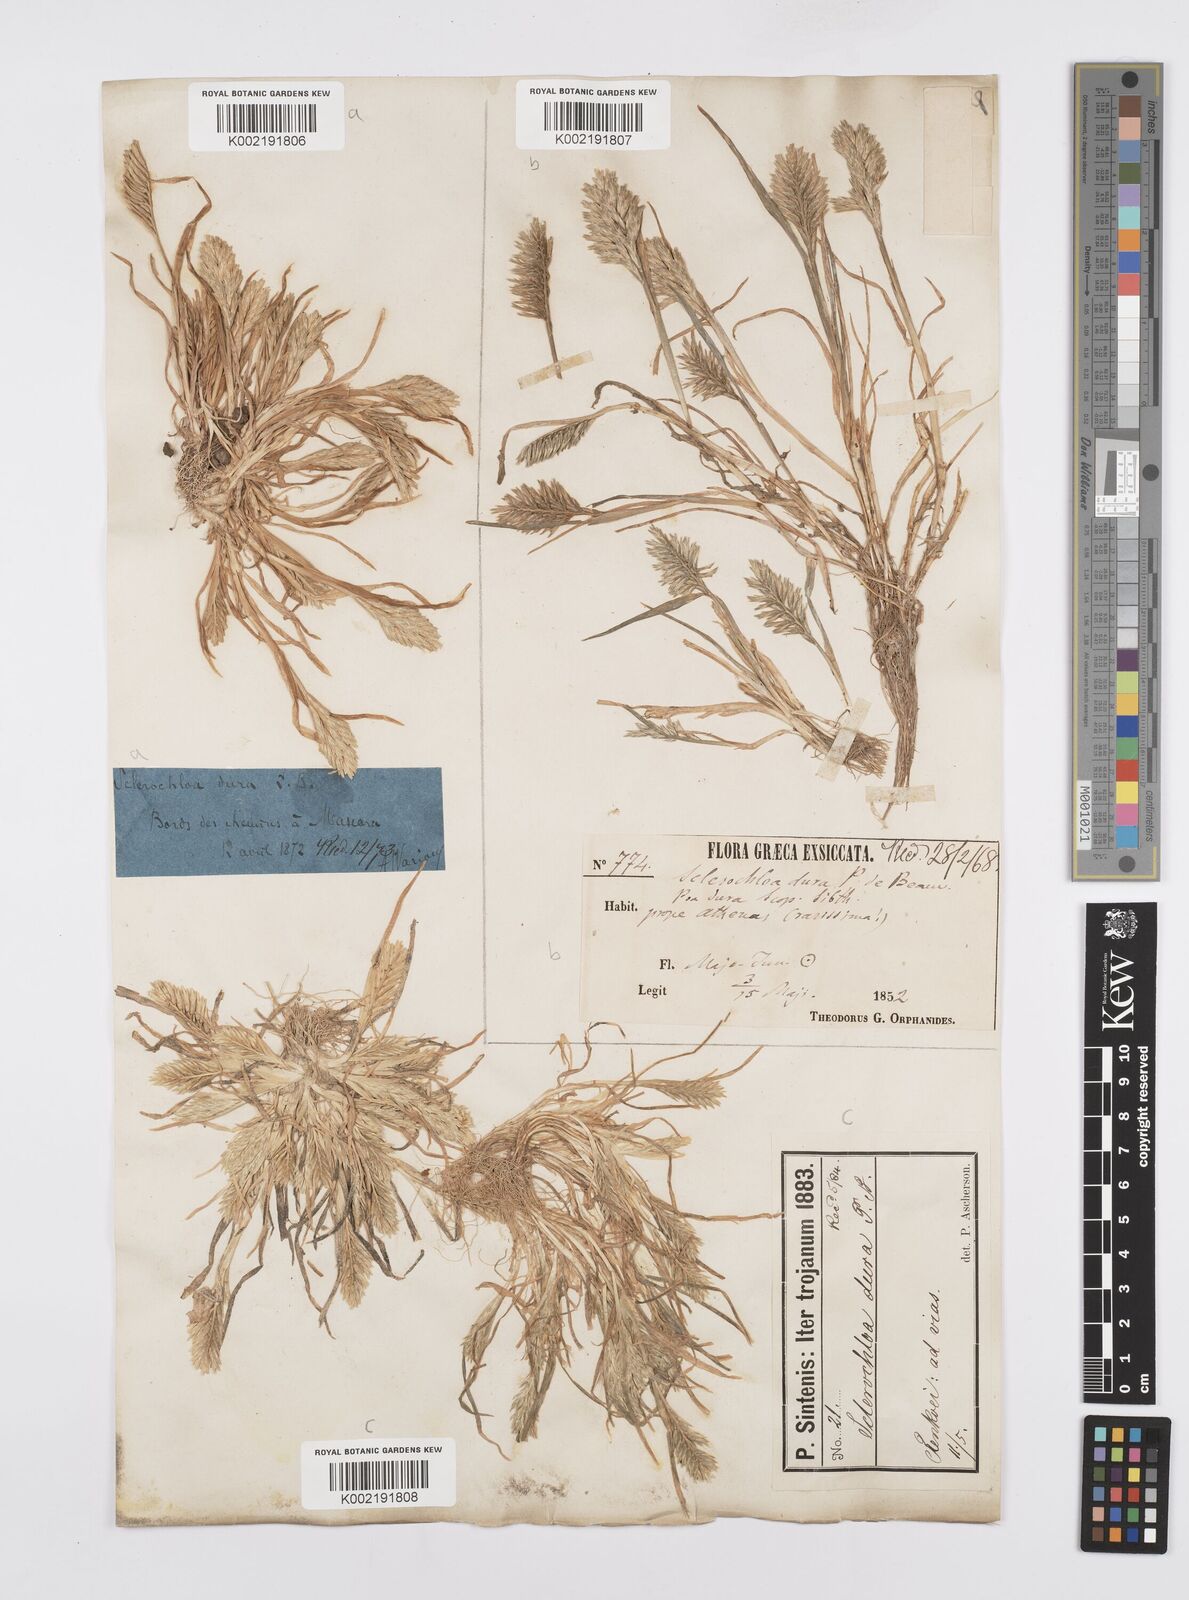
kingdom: Plantae
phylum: Tracheophyta
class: Liliopsida
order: Poales
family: Poaceae
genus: Sclerochloa
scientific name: Sclerochloa dura
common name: Common hardgrass
